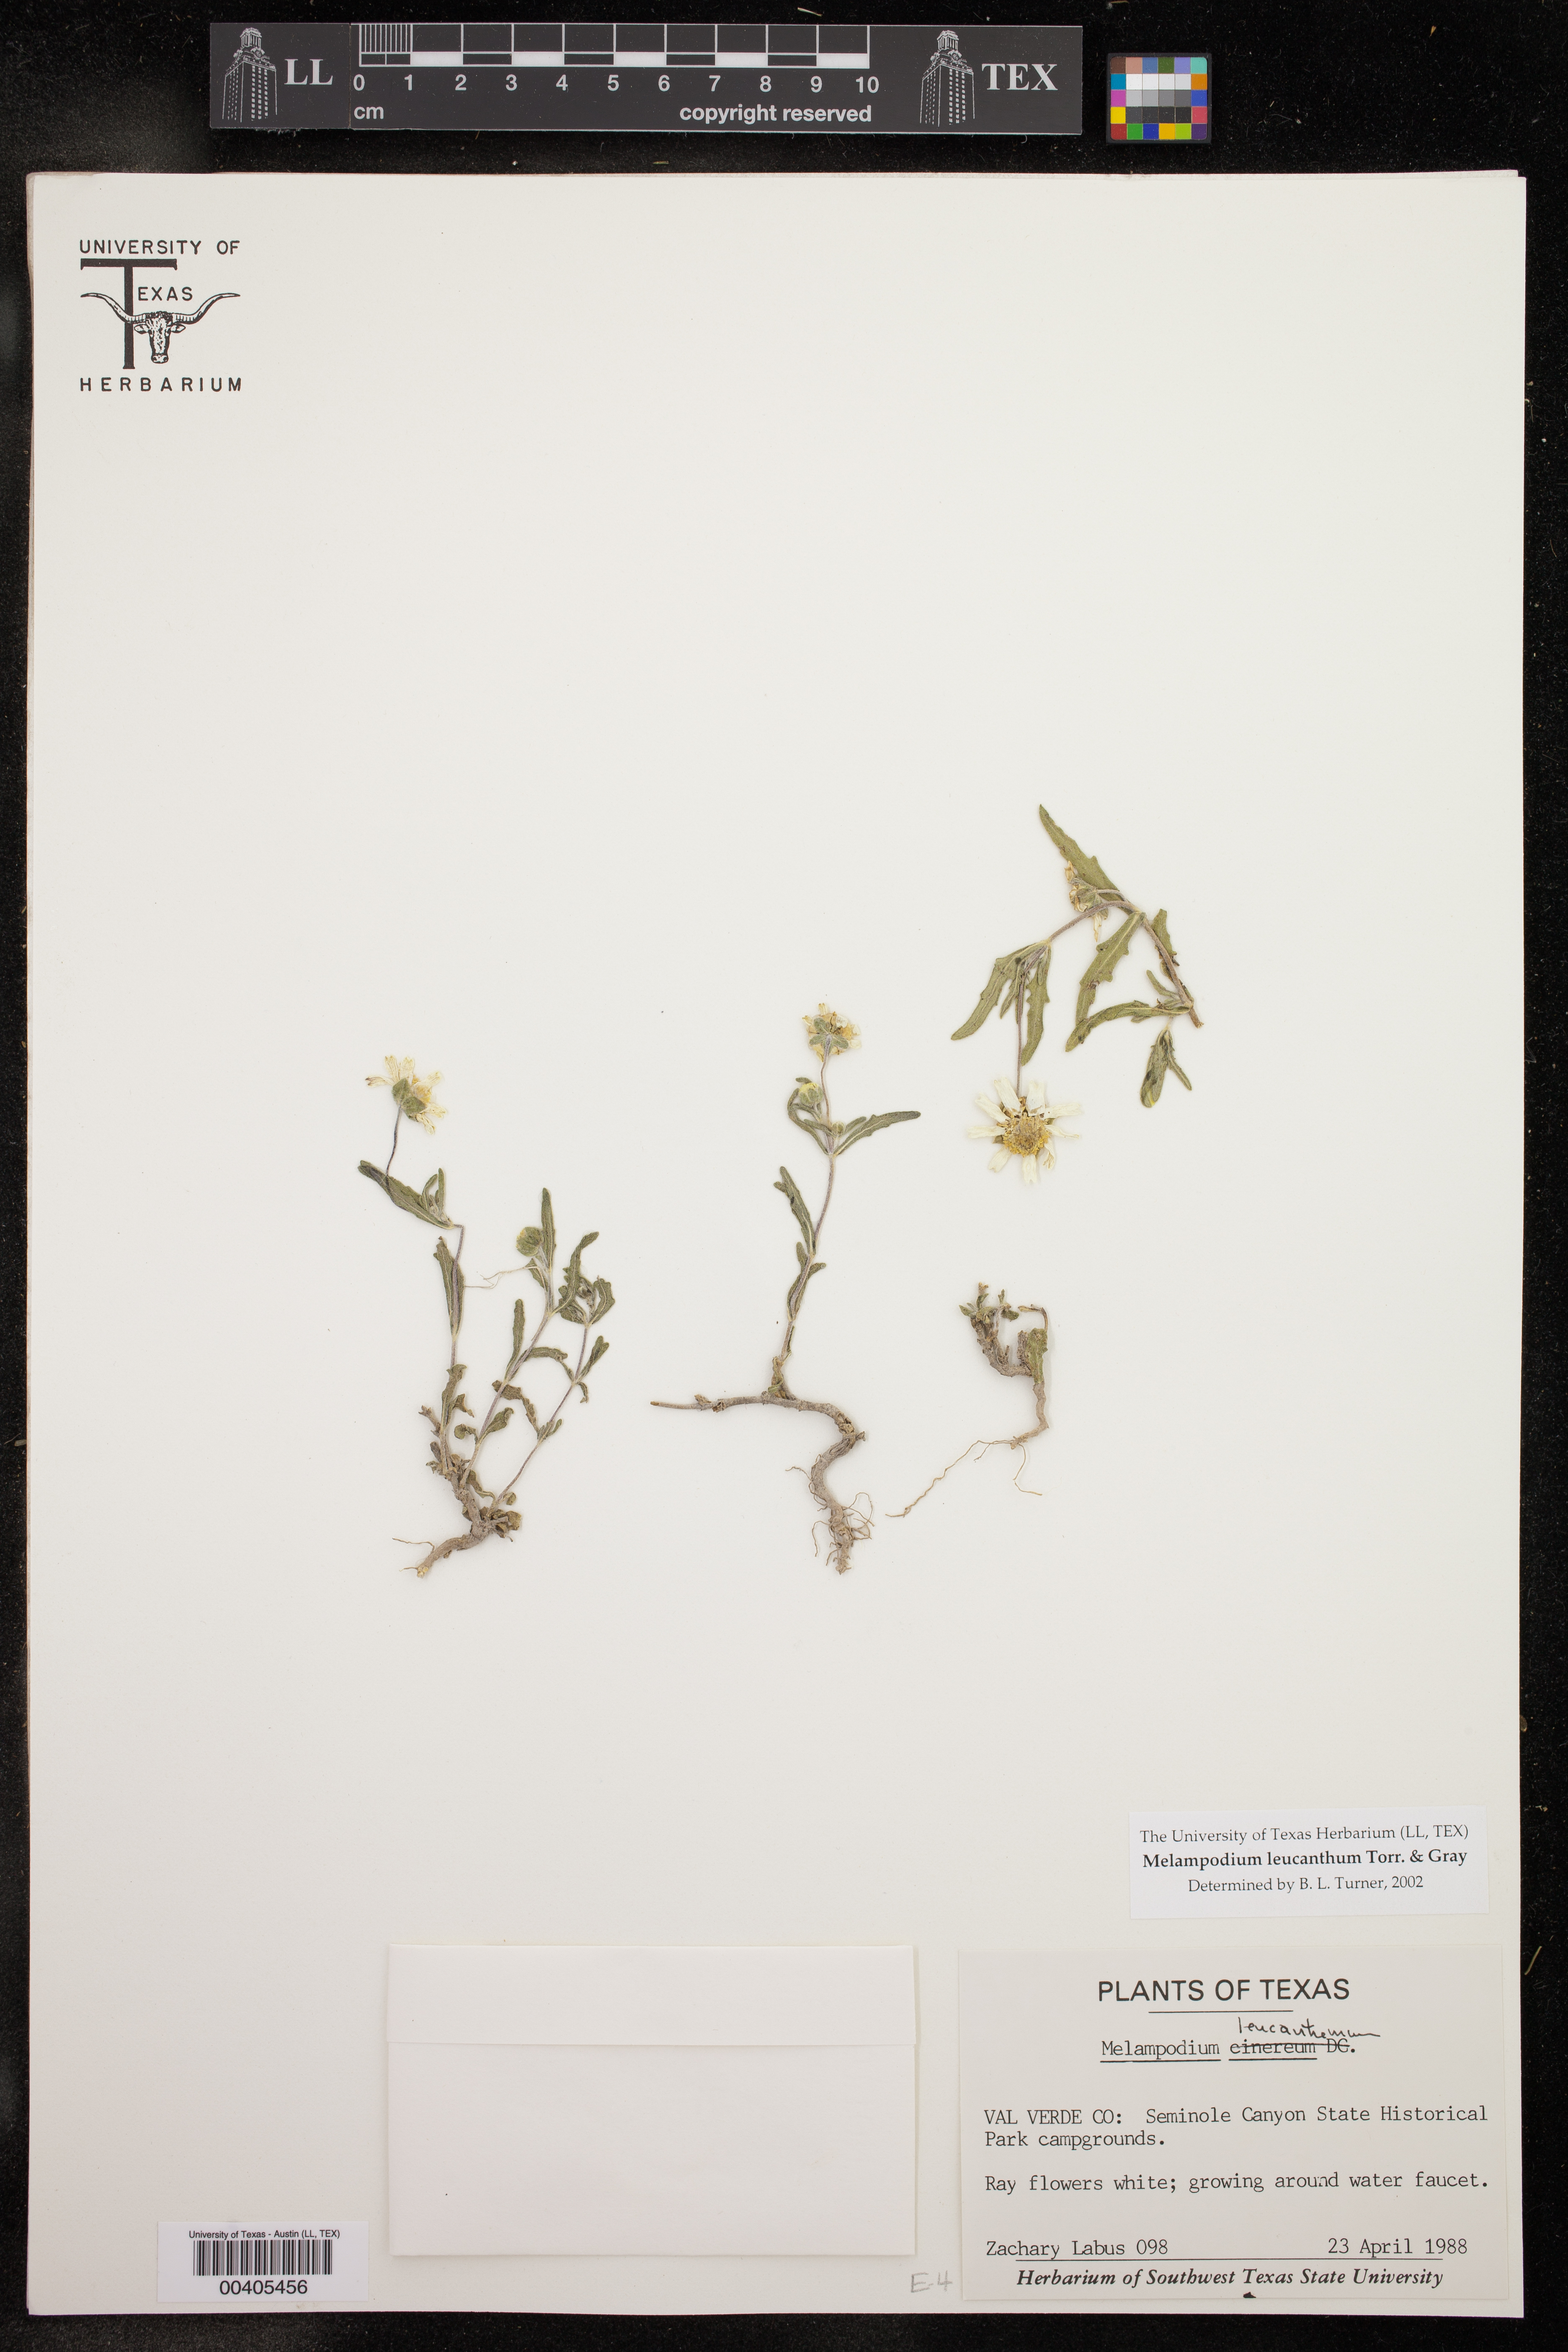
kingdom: Plantae
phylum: Tracheophyta
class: Magnoliopsida
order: Asterales
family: Asteraceae
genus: Melampodium
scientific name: Melampodium leucanthum
